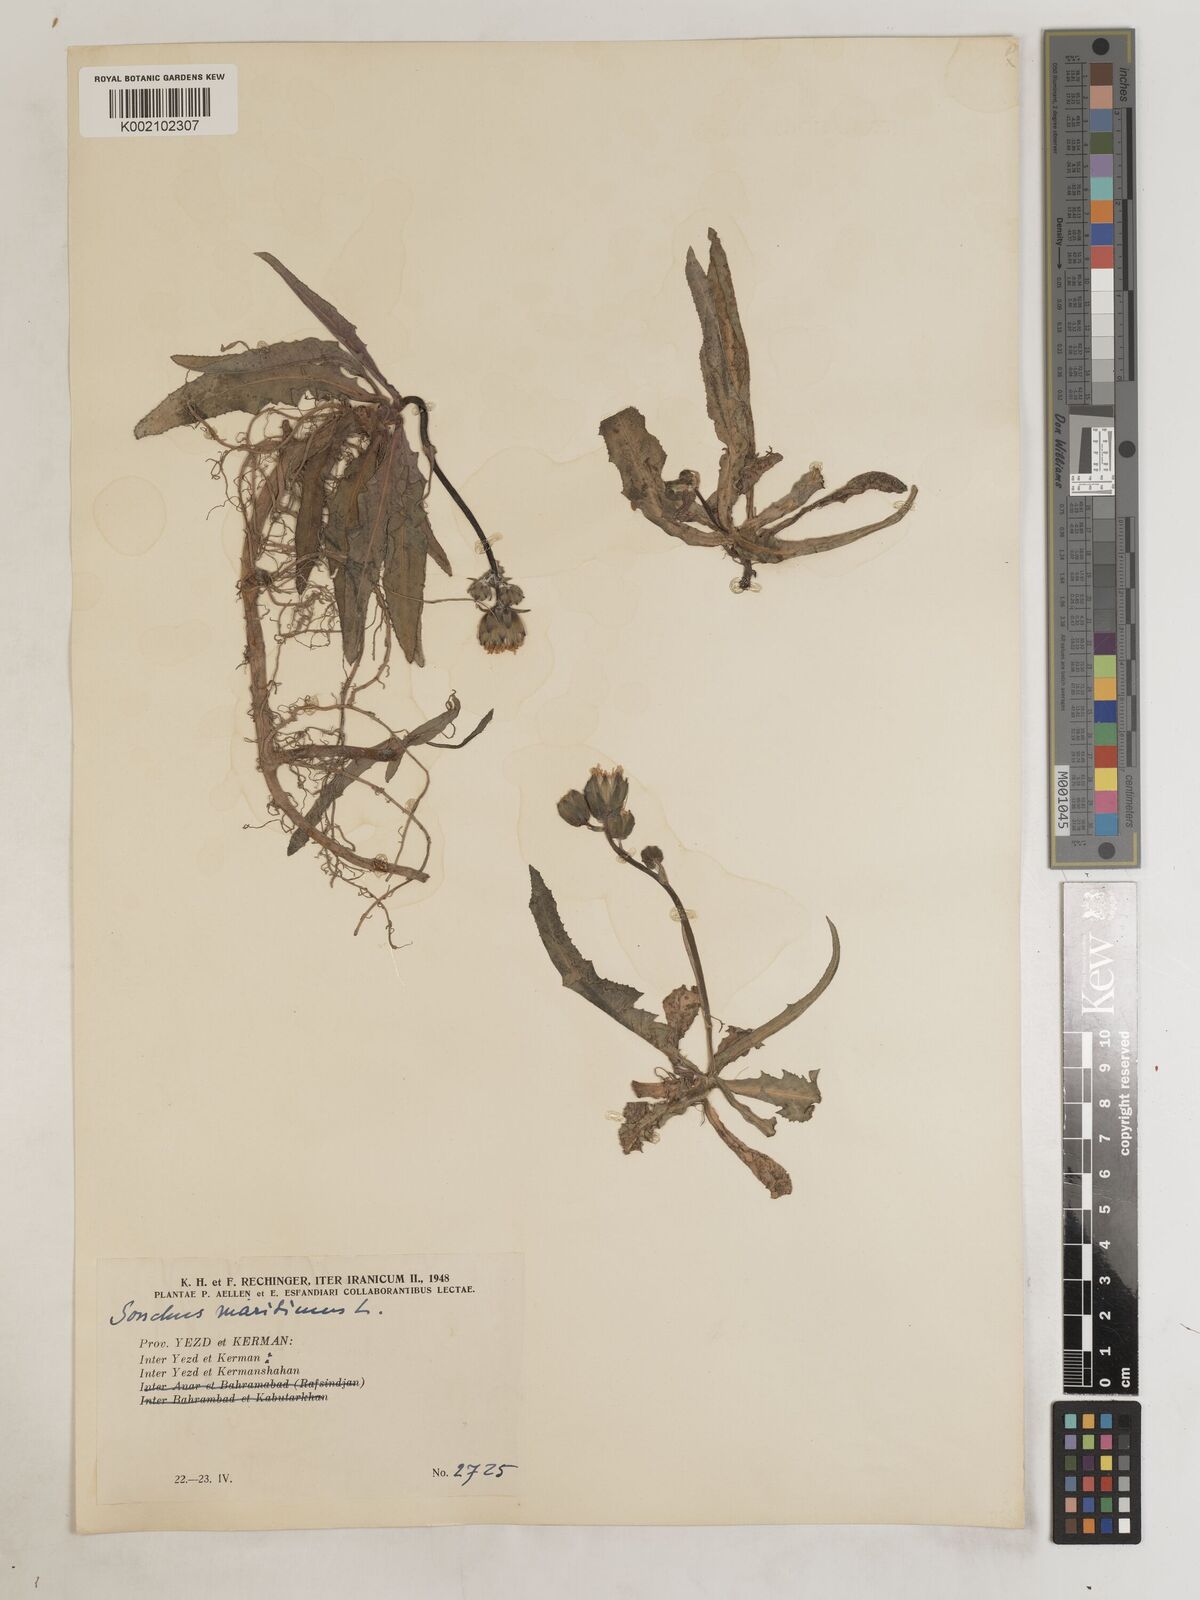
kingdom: Plantae
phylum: Tracheophyta
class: Magnoliopsida
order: Asterales
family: Asteraceae
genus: Sonchus
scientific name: Sonchus maritimus
